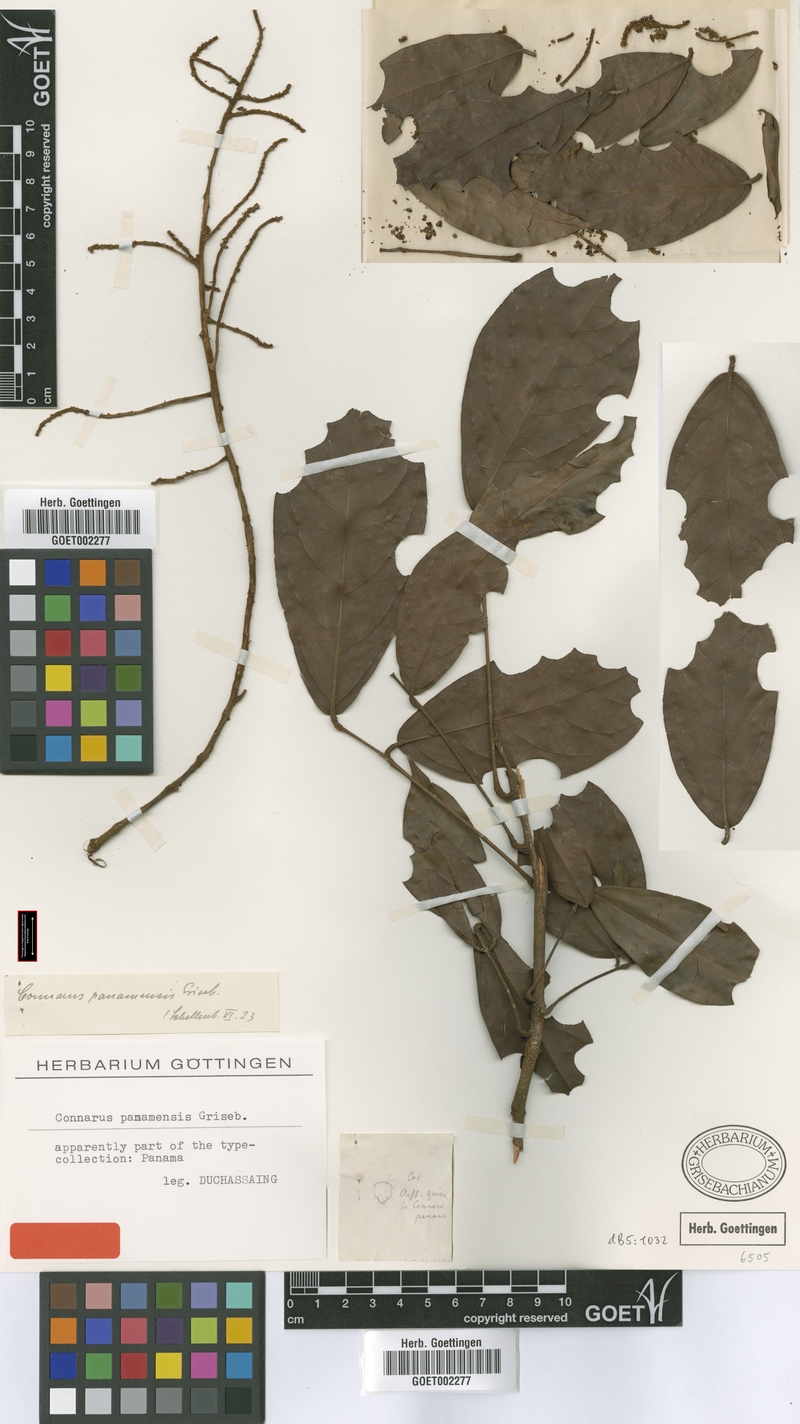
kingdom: Plantae
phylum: Tracheophyta
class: Magnoliopsida
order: Oxalidales
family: Connaraceae
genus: Connarus
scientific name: Connarus panamensis
